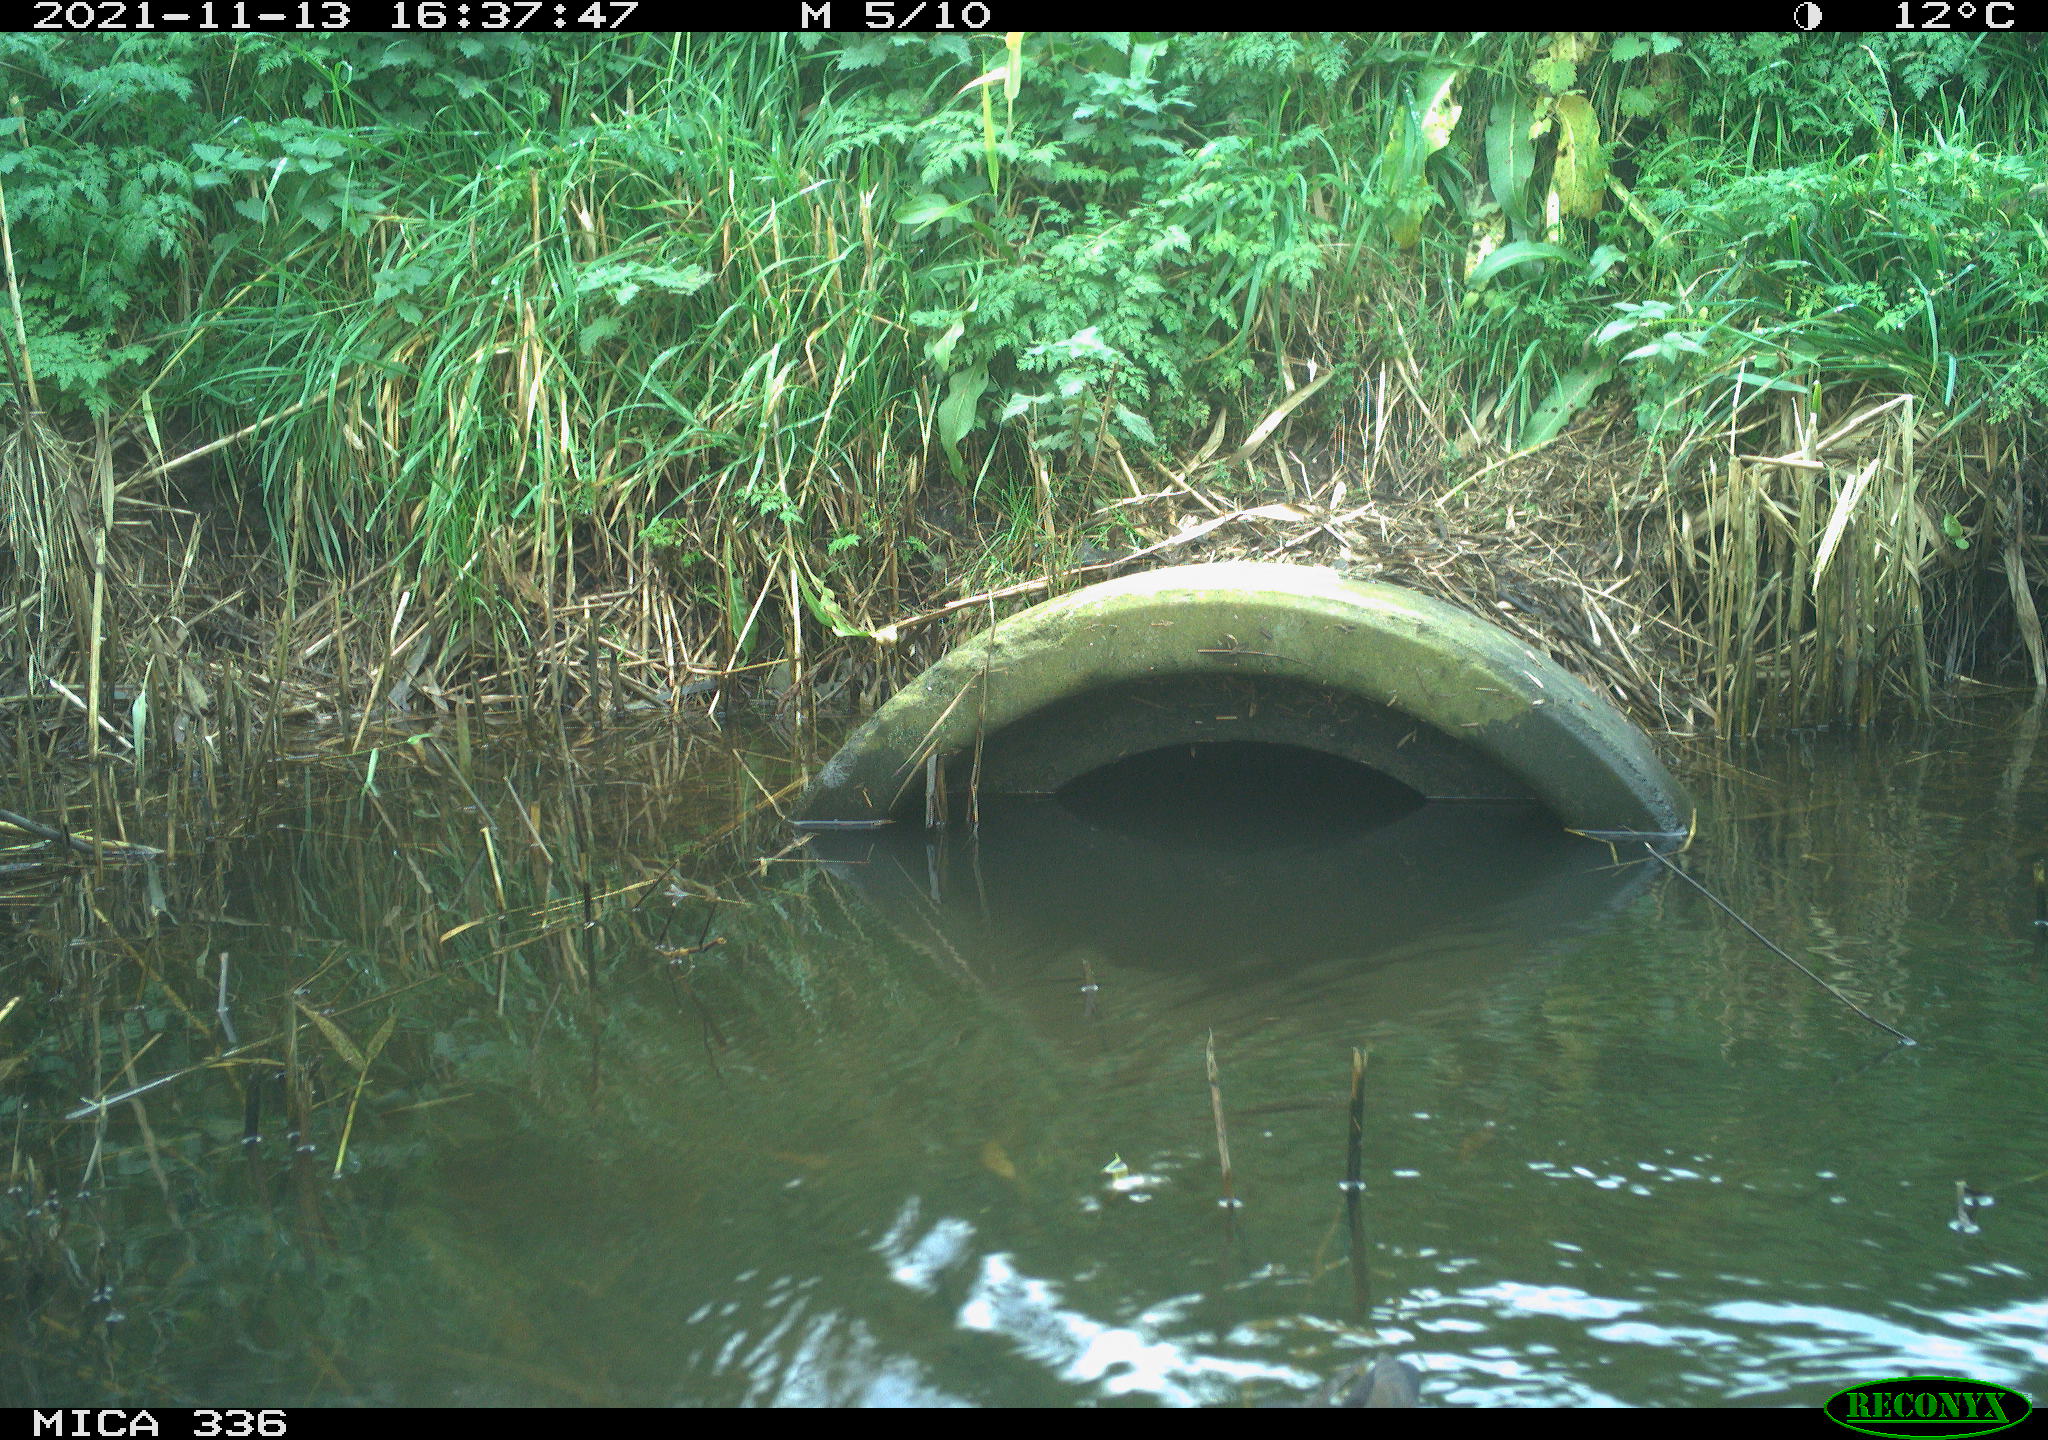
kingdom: Animalia
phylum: Chordata
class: Aves
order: Gruiformes
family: Rallidae
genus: Gallinula
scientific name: Gallinula chloropus
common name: Common moorhen
